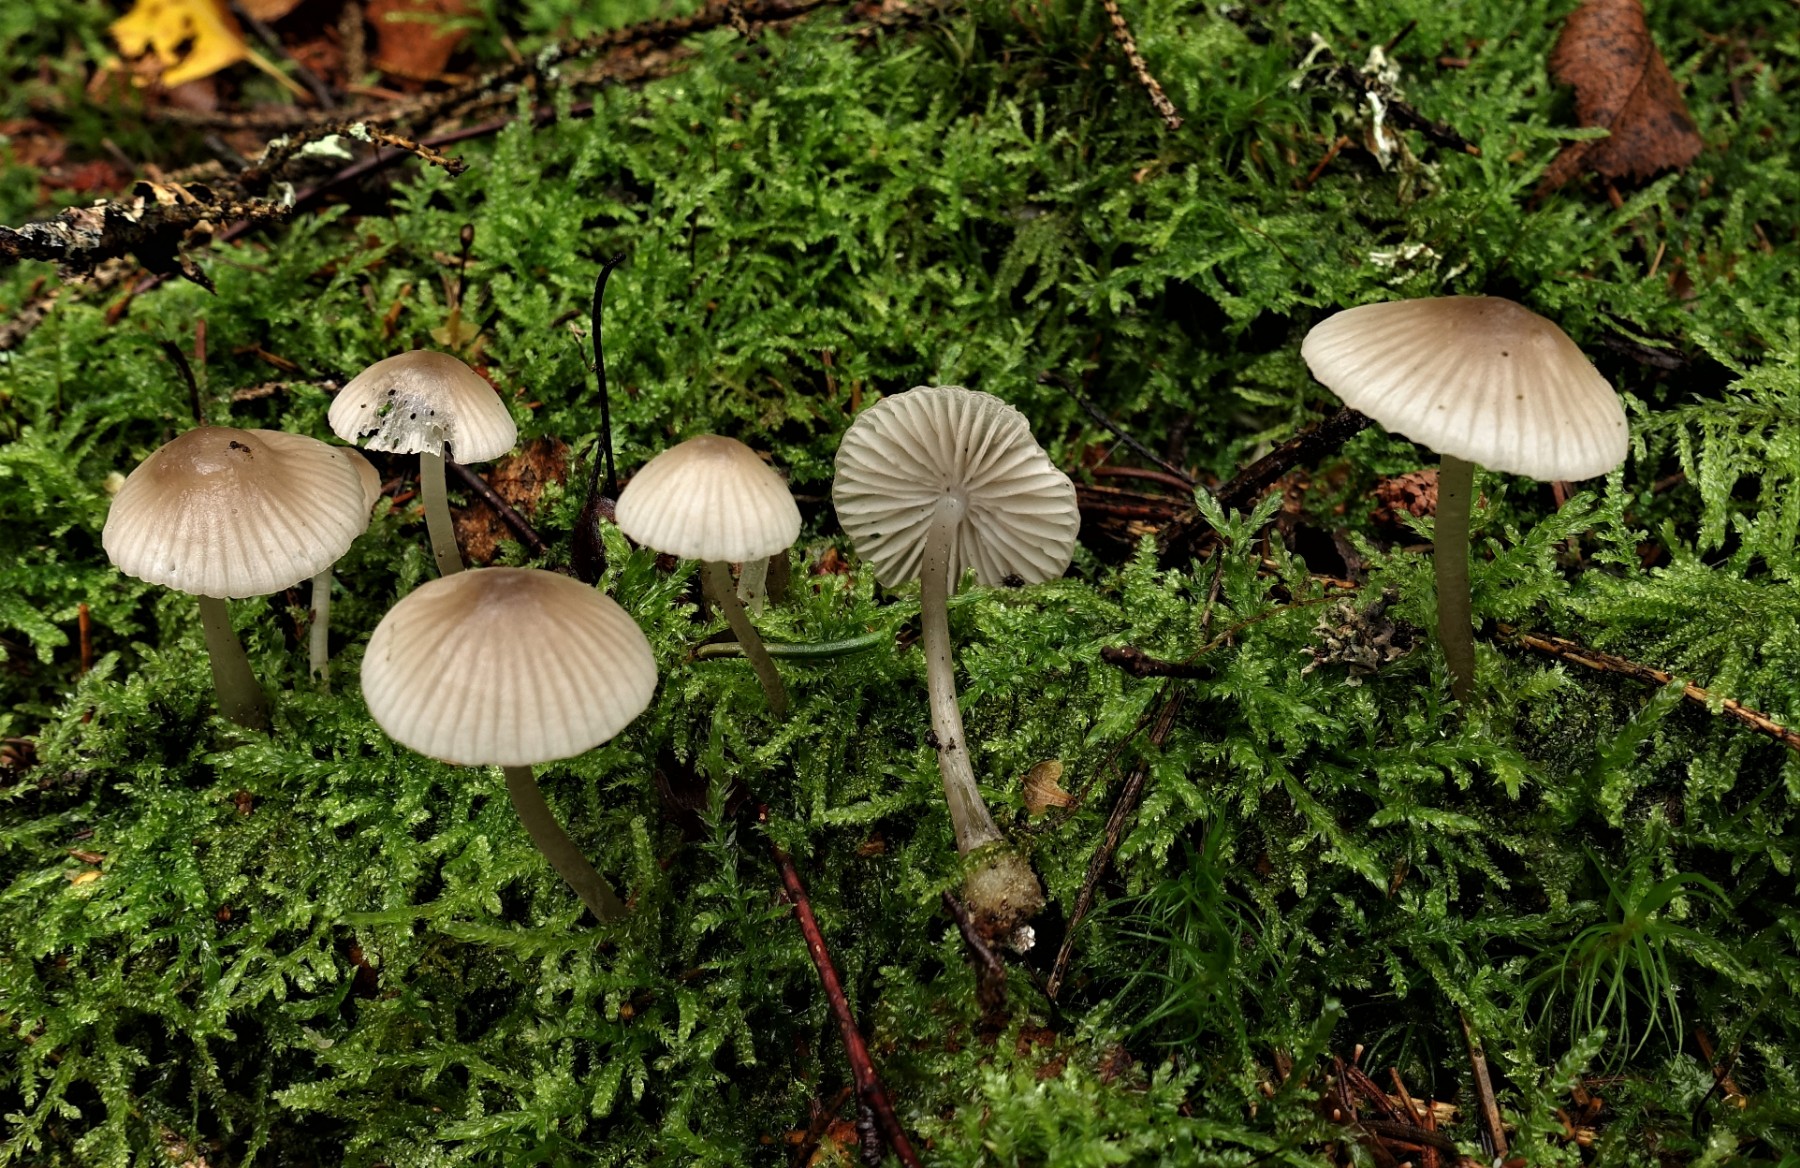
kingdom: Fungi
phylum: Basidiomycota
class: Agaricomycetes
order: Agaricales
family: Mycenaceae
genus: Mycena
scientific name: Mycena vitilis
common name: blankstokket huesvamp
